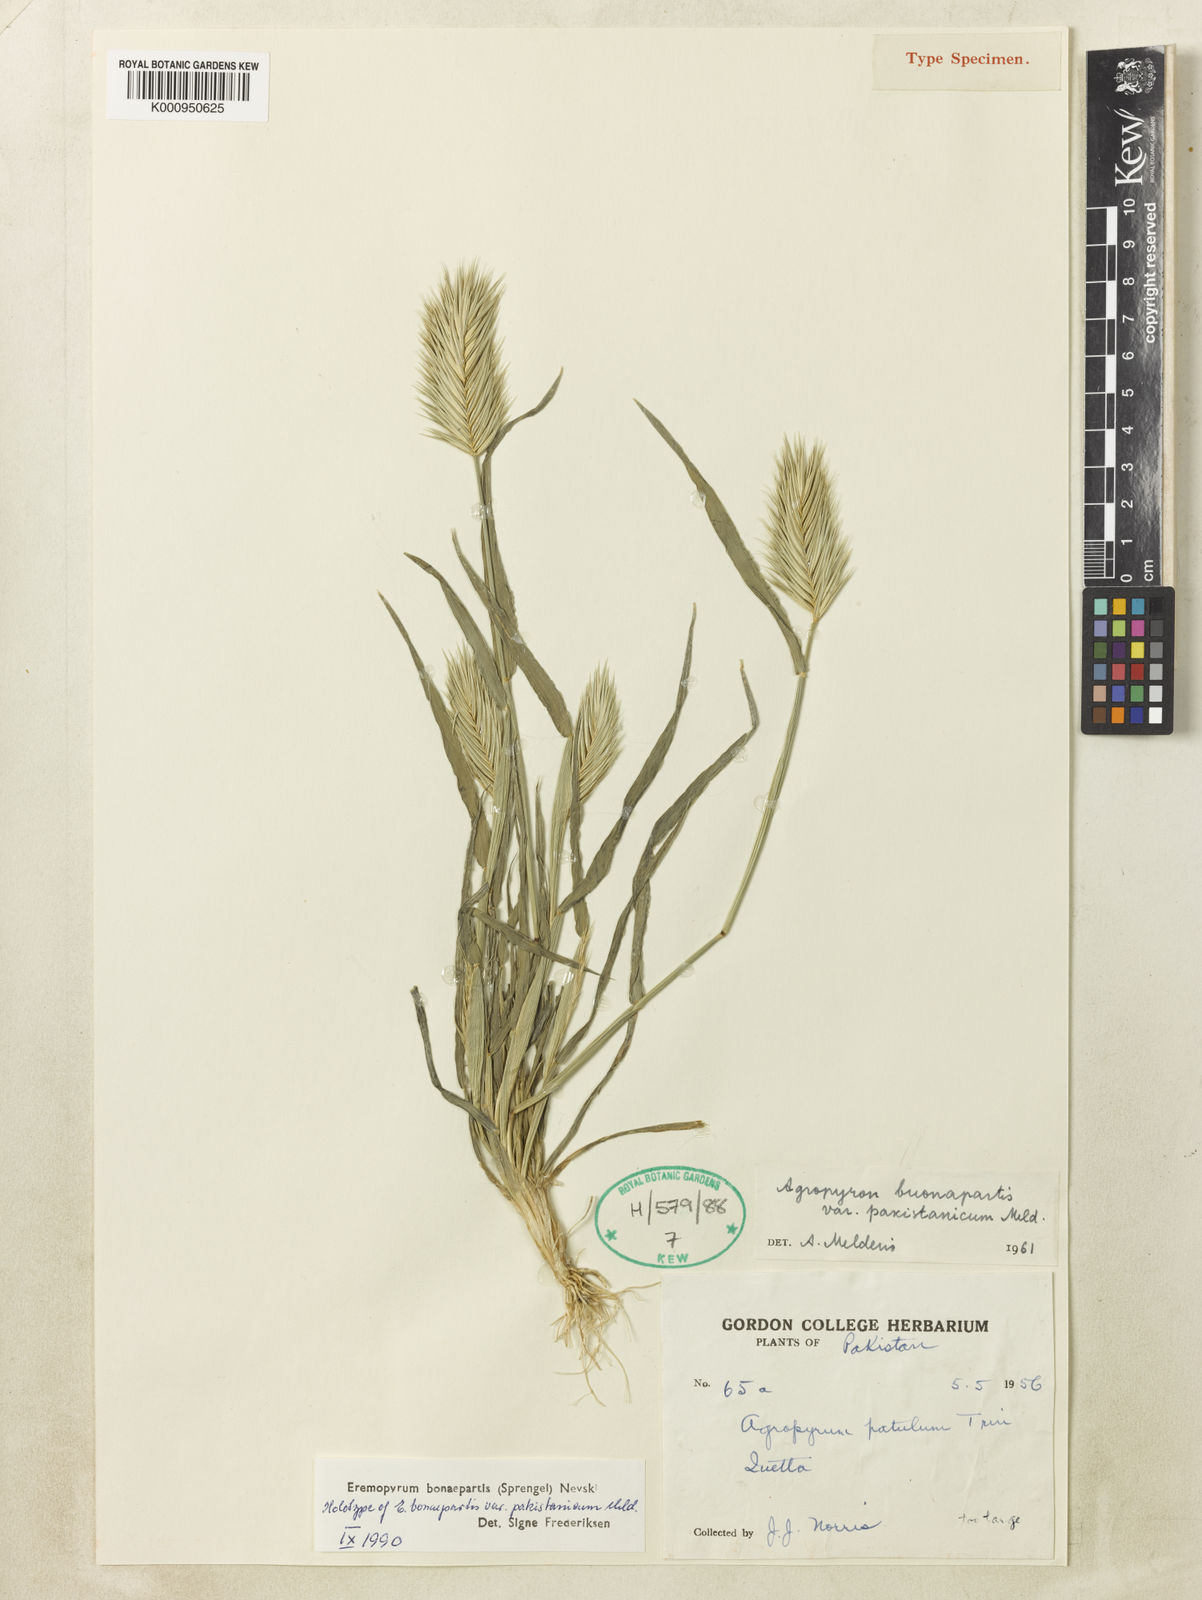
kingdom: Plantae
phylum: Tracheophyta
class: Liliopsida
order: Poales
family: Poaceae
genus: Eremopyrum
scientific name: Eremopyrum bonaepartis
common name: Tapertip false wheatgrass
